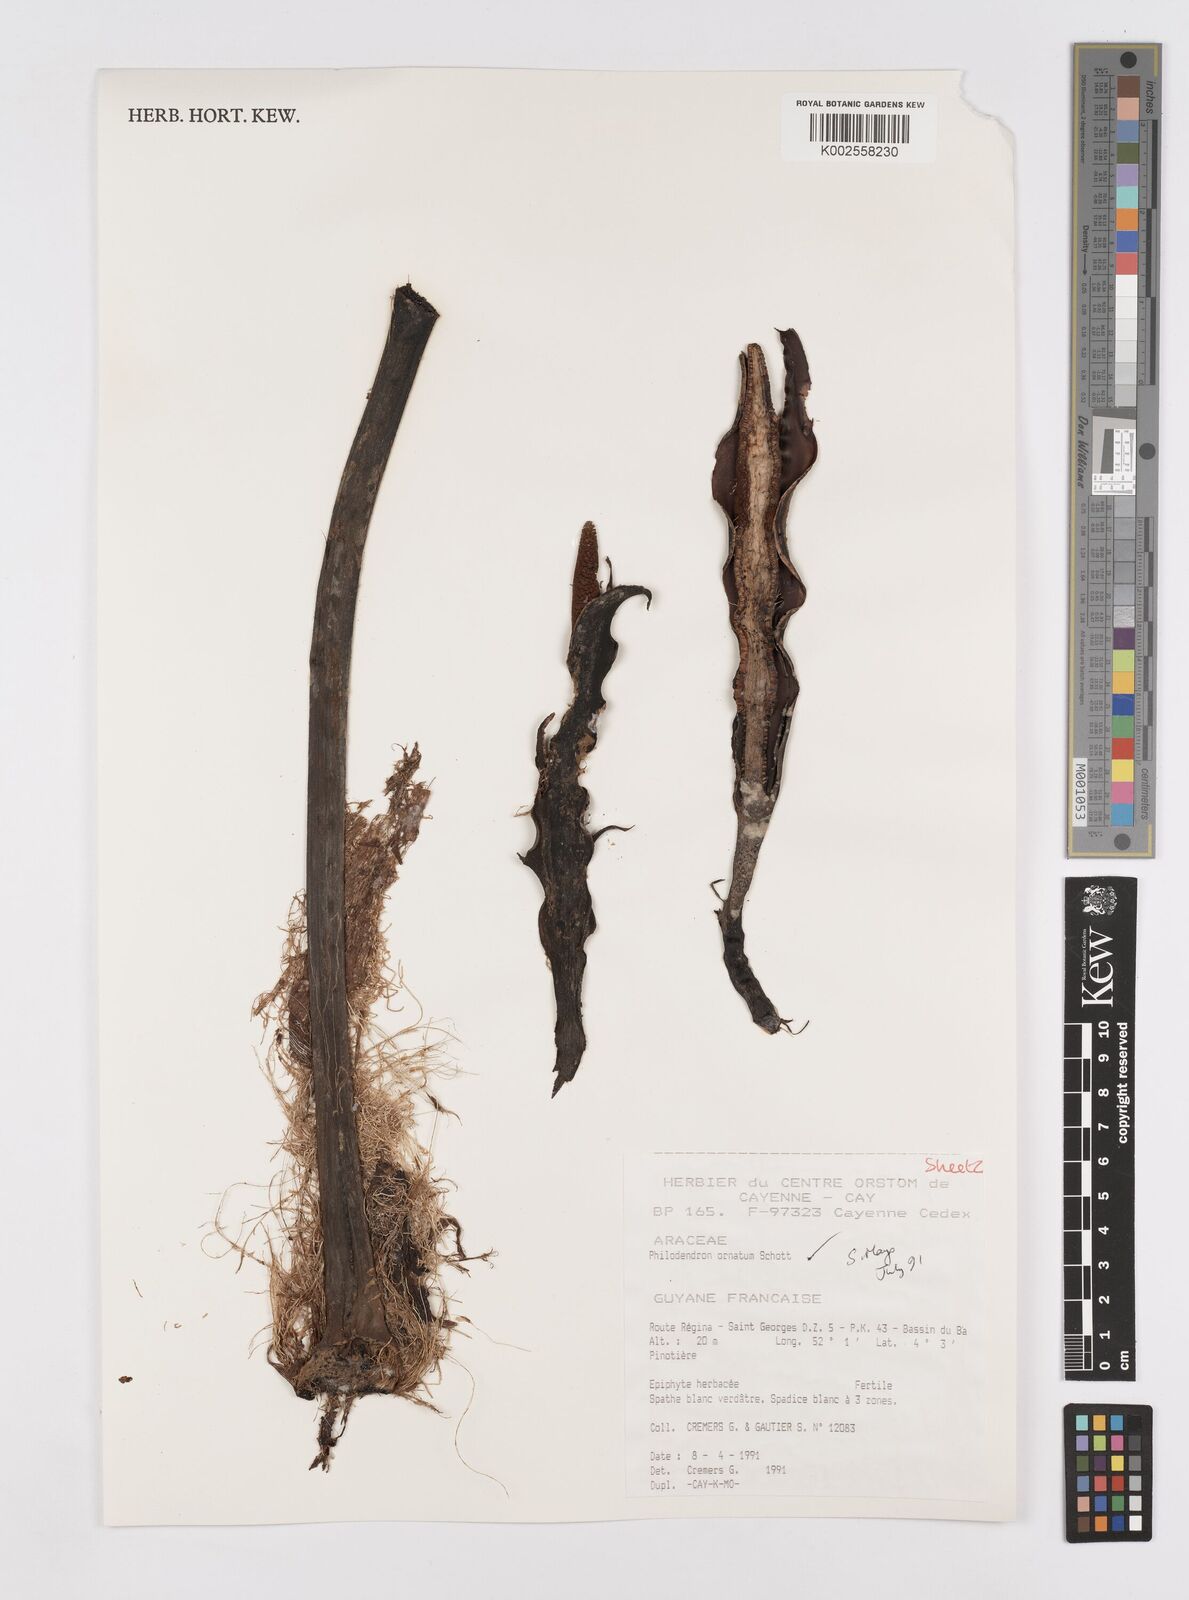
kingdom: Plantae
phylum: Tracheophyta
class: Liliopsida
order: Alismatales
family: Araceae
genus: Philodendron
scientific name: Philodendron ornatum
